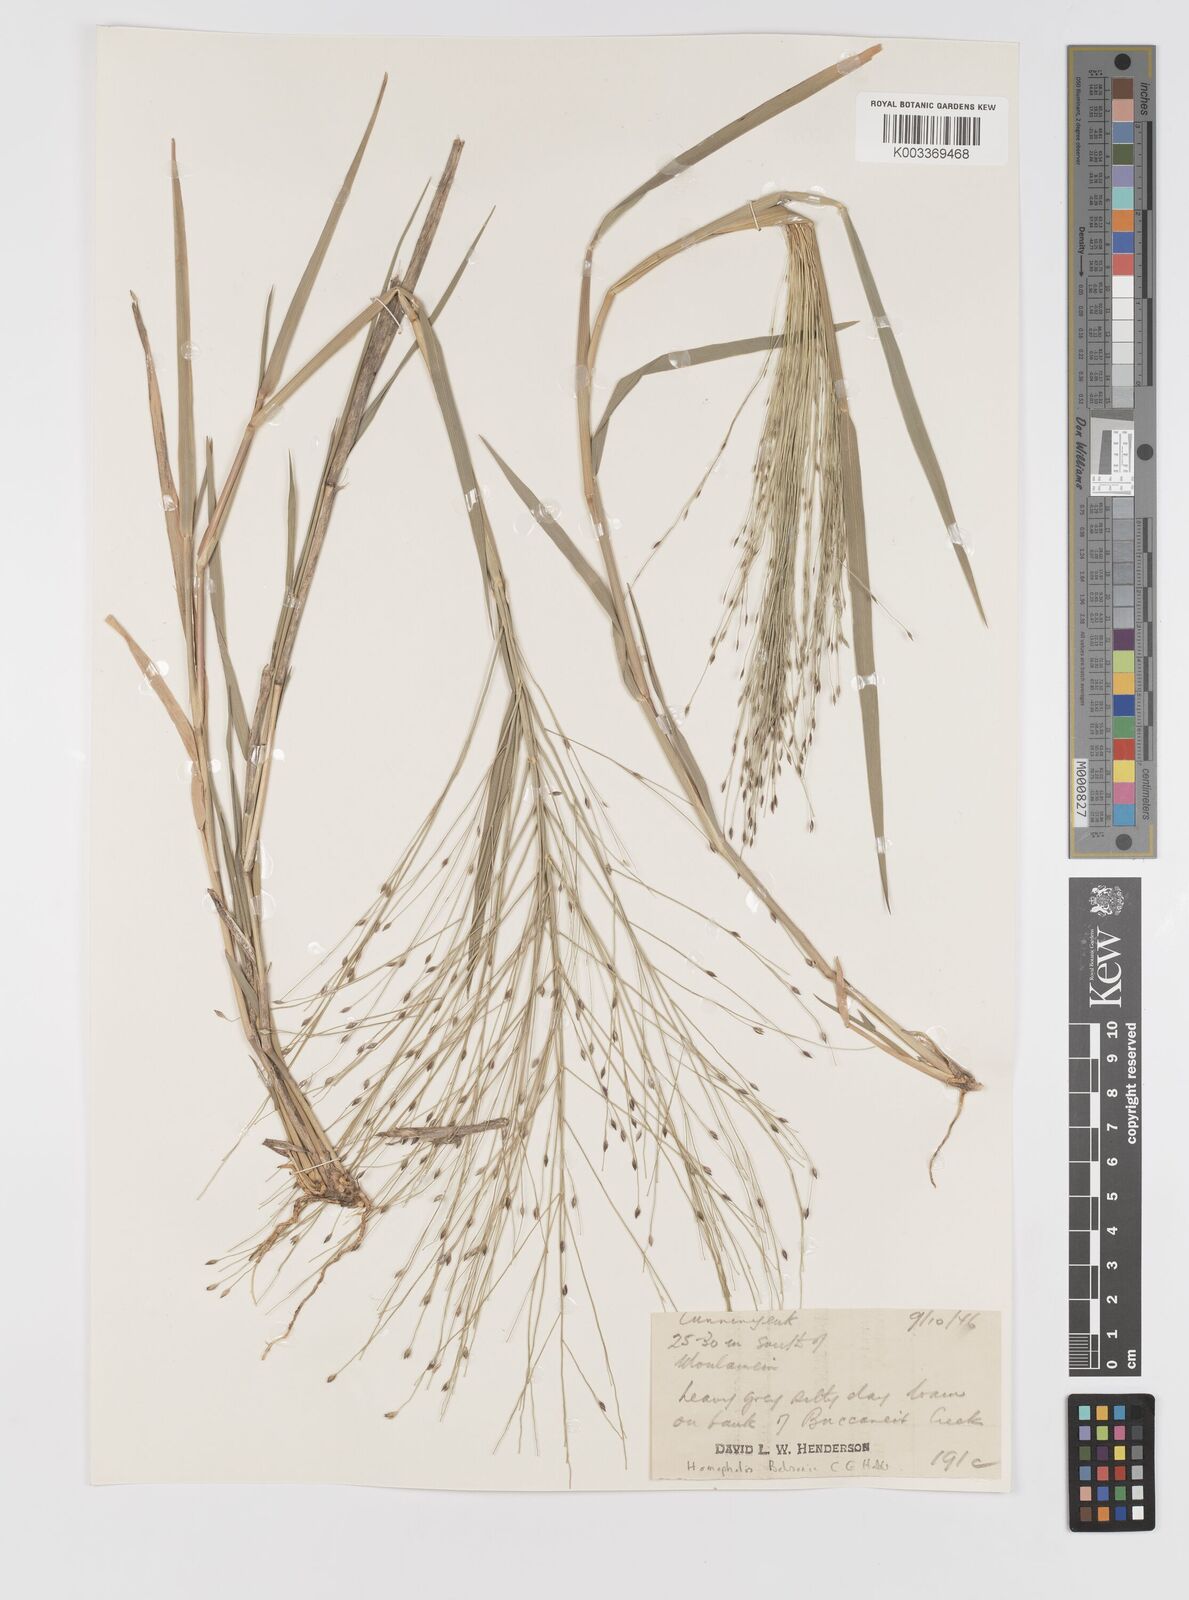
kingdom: Plantae
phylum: Tracheophyta
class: Liliopsida
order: Poales
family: Poaceae
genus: Walwhalleya
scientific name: Walwhalleya proluta
